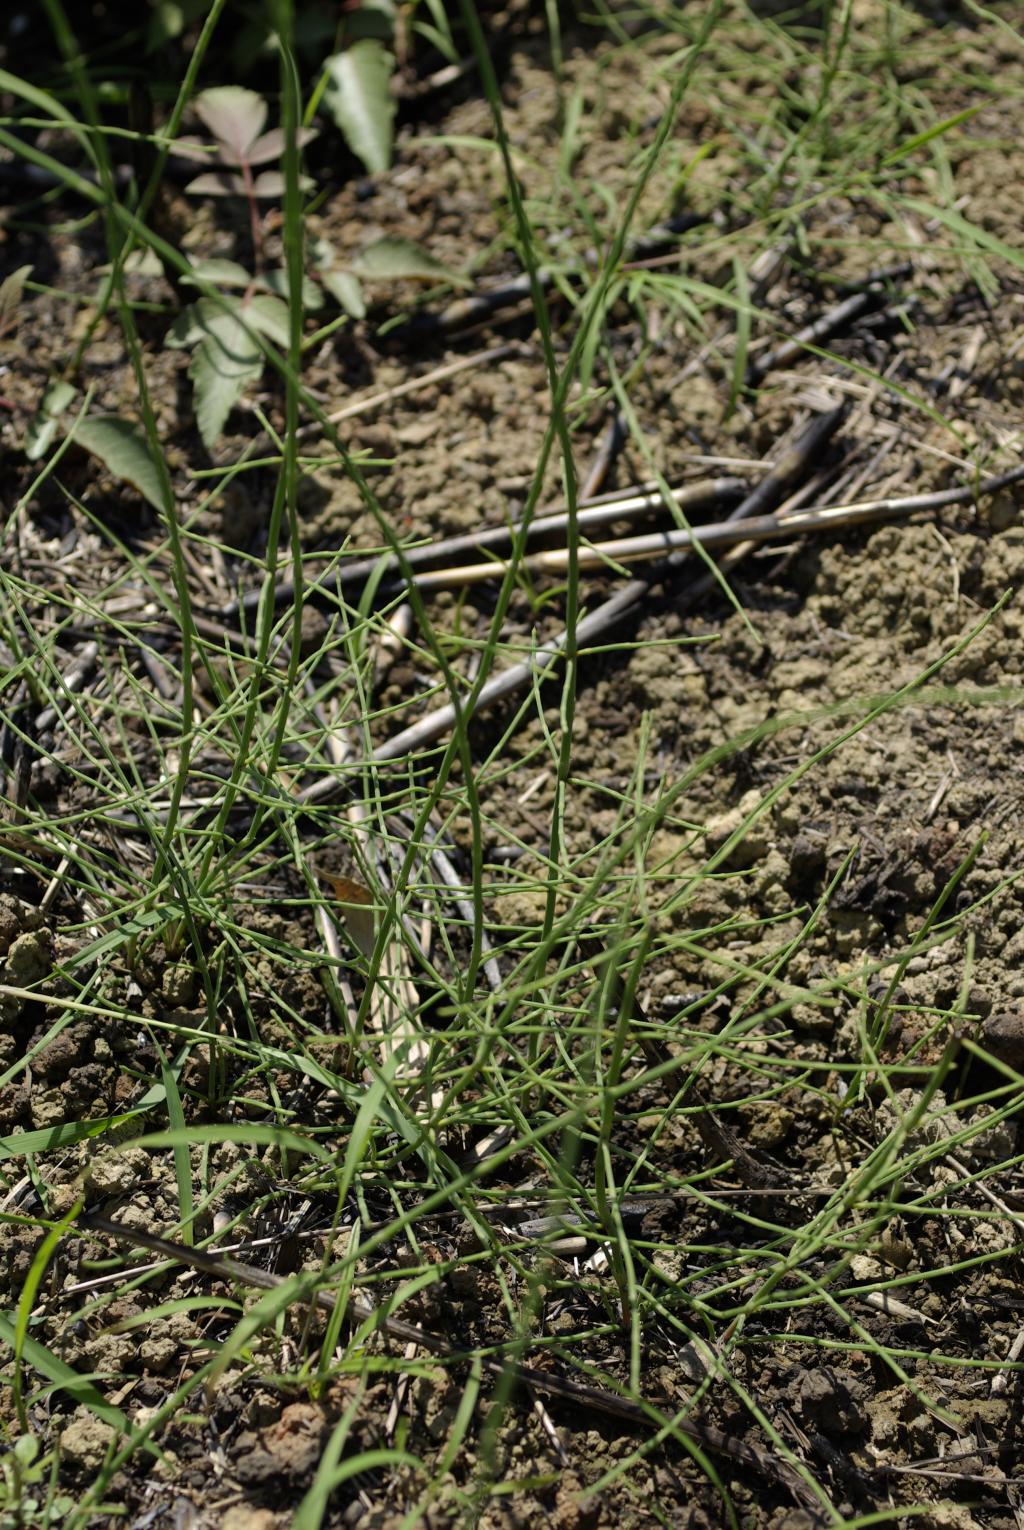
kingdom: Plantae
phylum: Tracheophyta
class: Polypodiopsida
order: Equisetales
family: Equisetaceae
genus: Equisetum
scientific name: Equisetum ramosissimum
